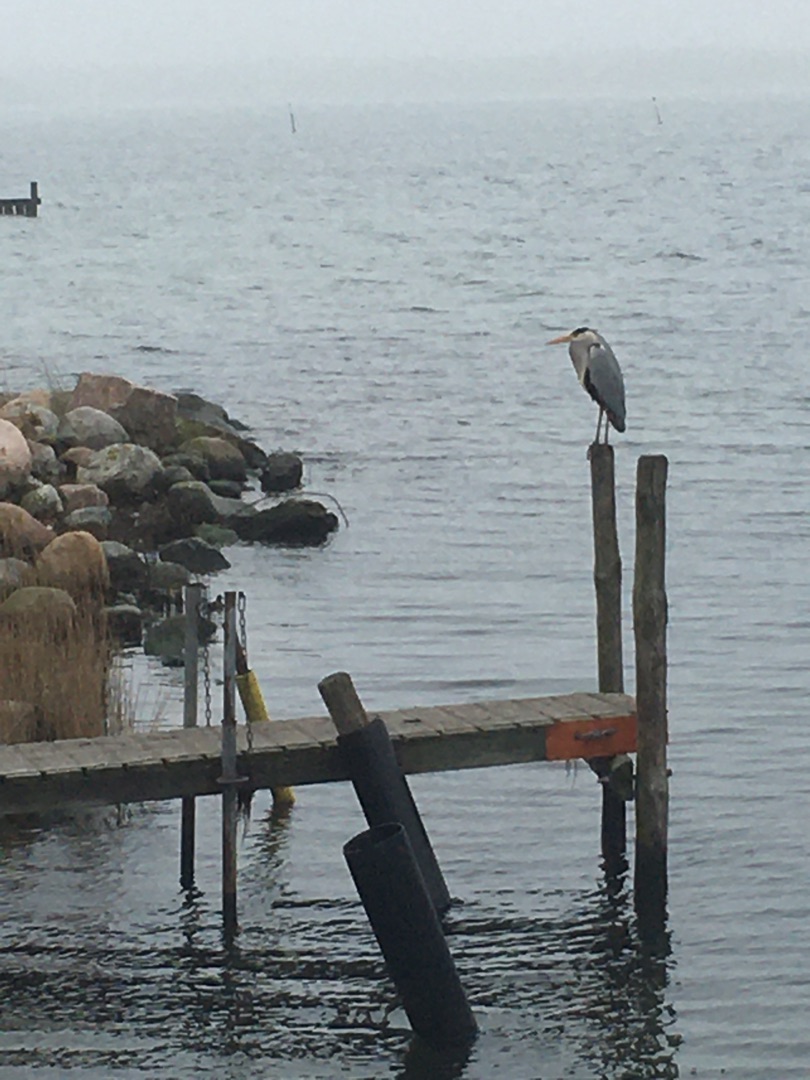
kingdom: Animalia
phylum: Chordata
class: Aves
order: Pelecaniformes
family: Ardeidae
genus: Ardea
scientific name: Ardea cinerea
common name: Fiskehejre
